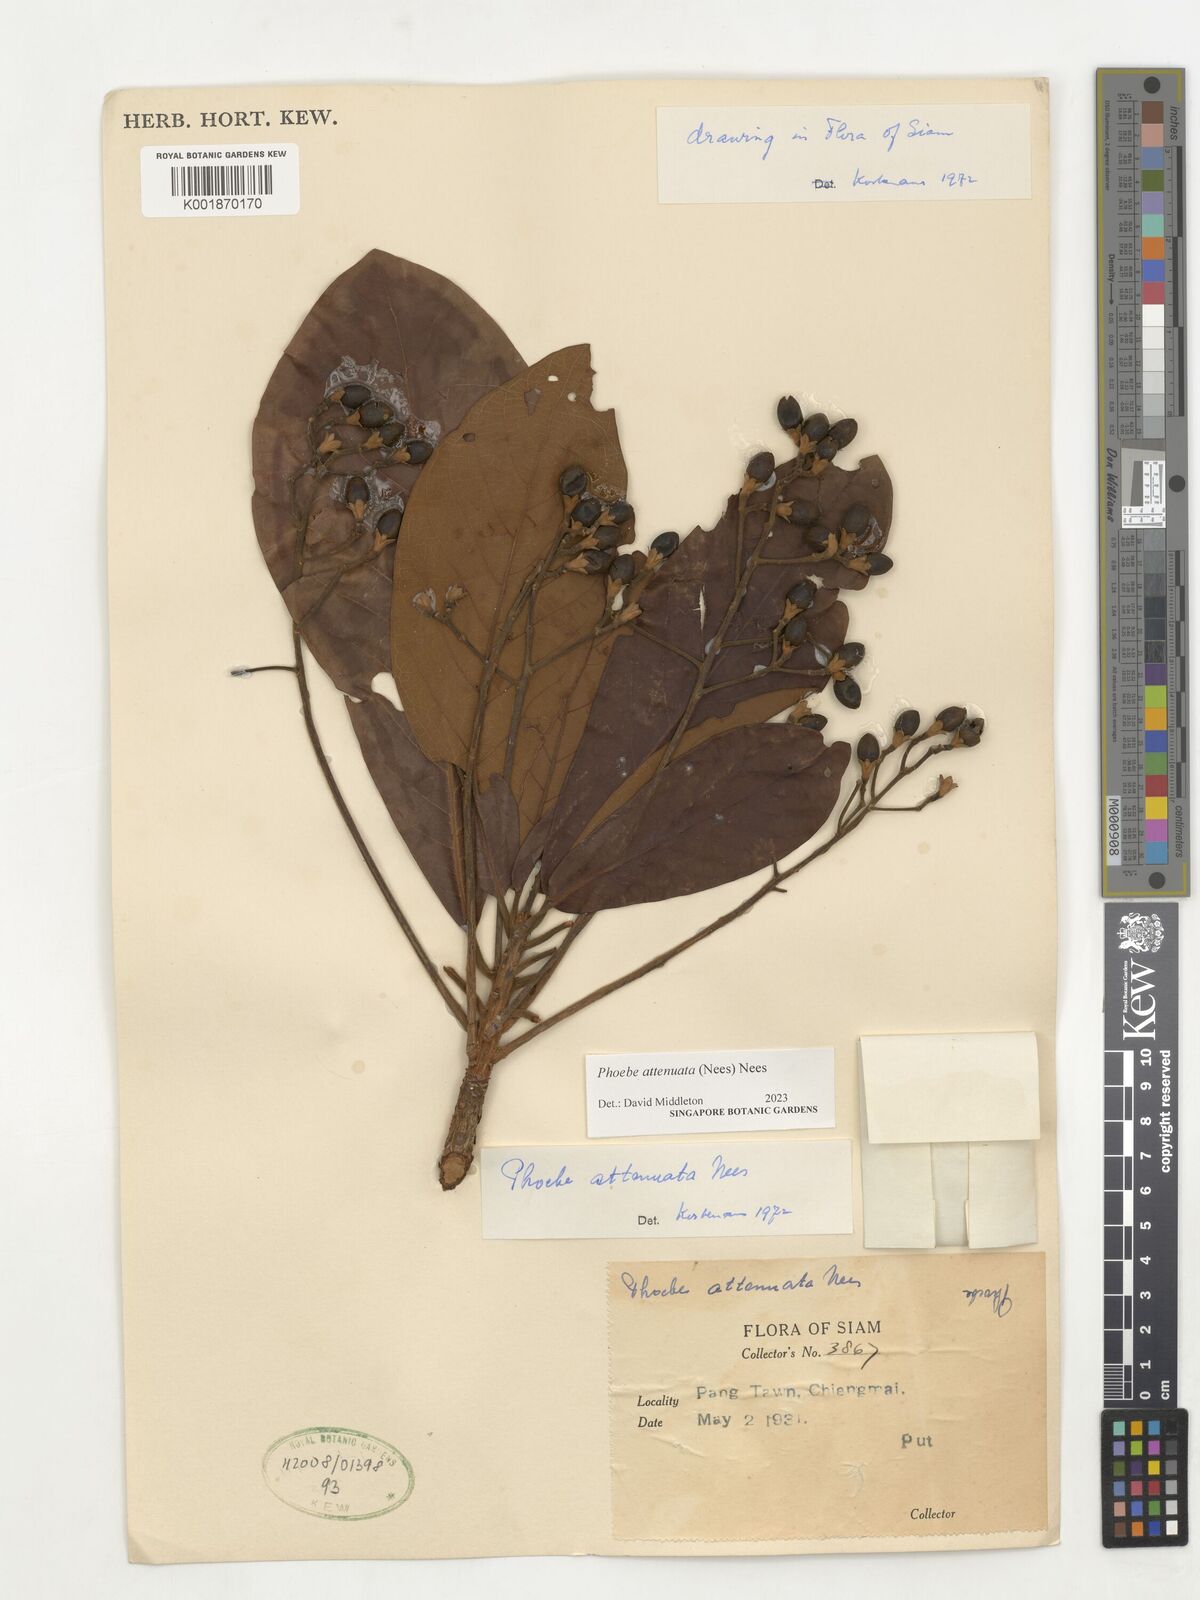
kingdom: Plantae
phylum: Tracheophyta
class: Magnoliopsida
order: Laurales
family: Lauraceae
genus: Phoebe
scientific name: Phoebe attenuata
